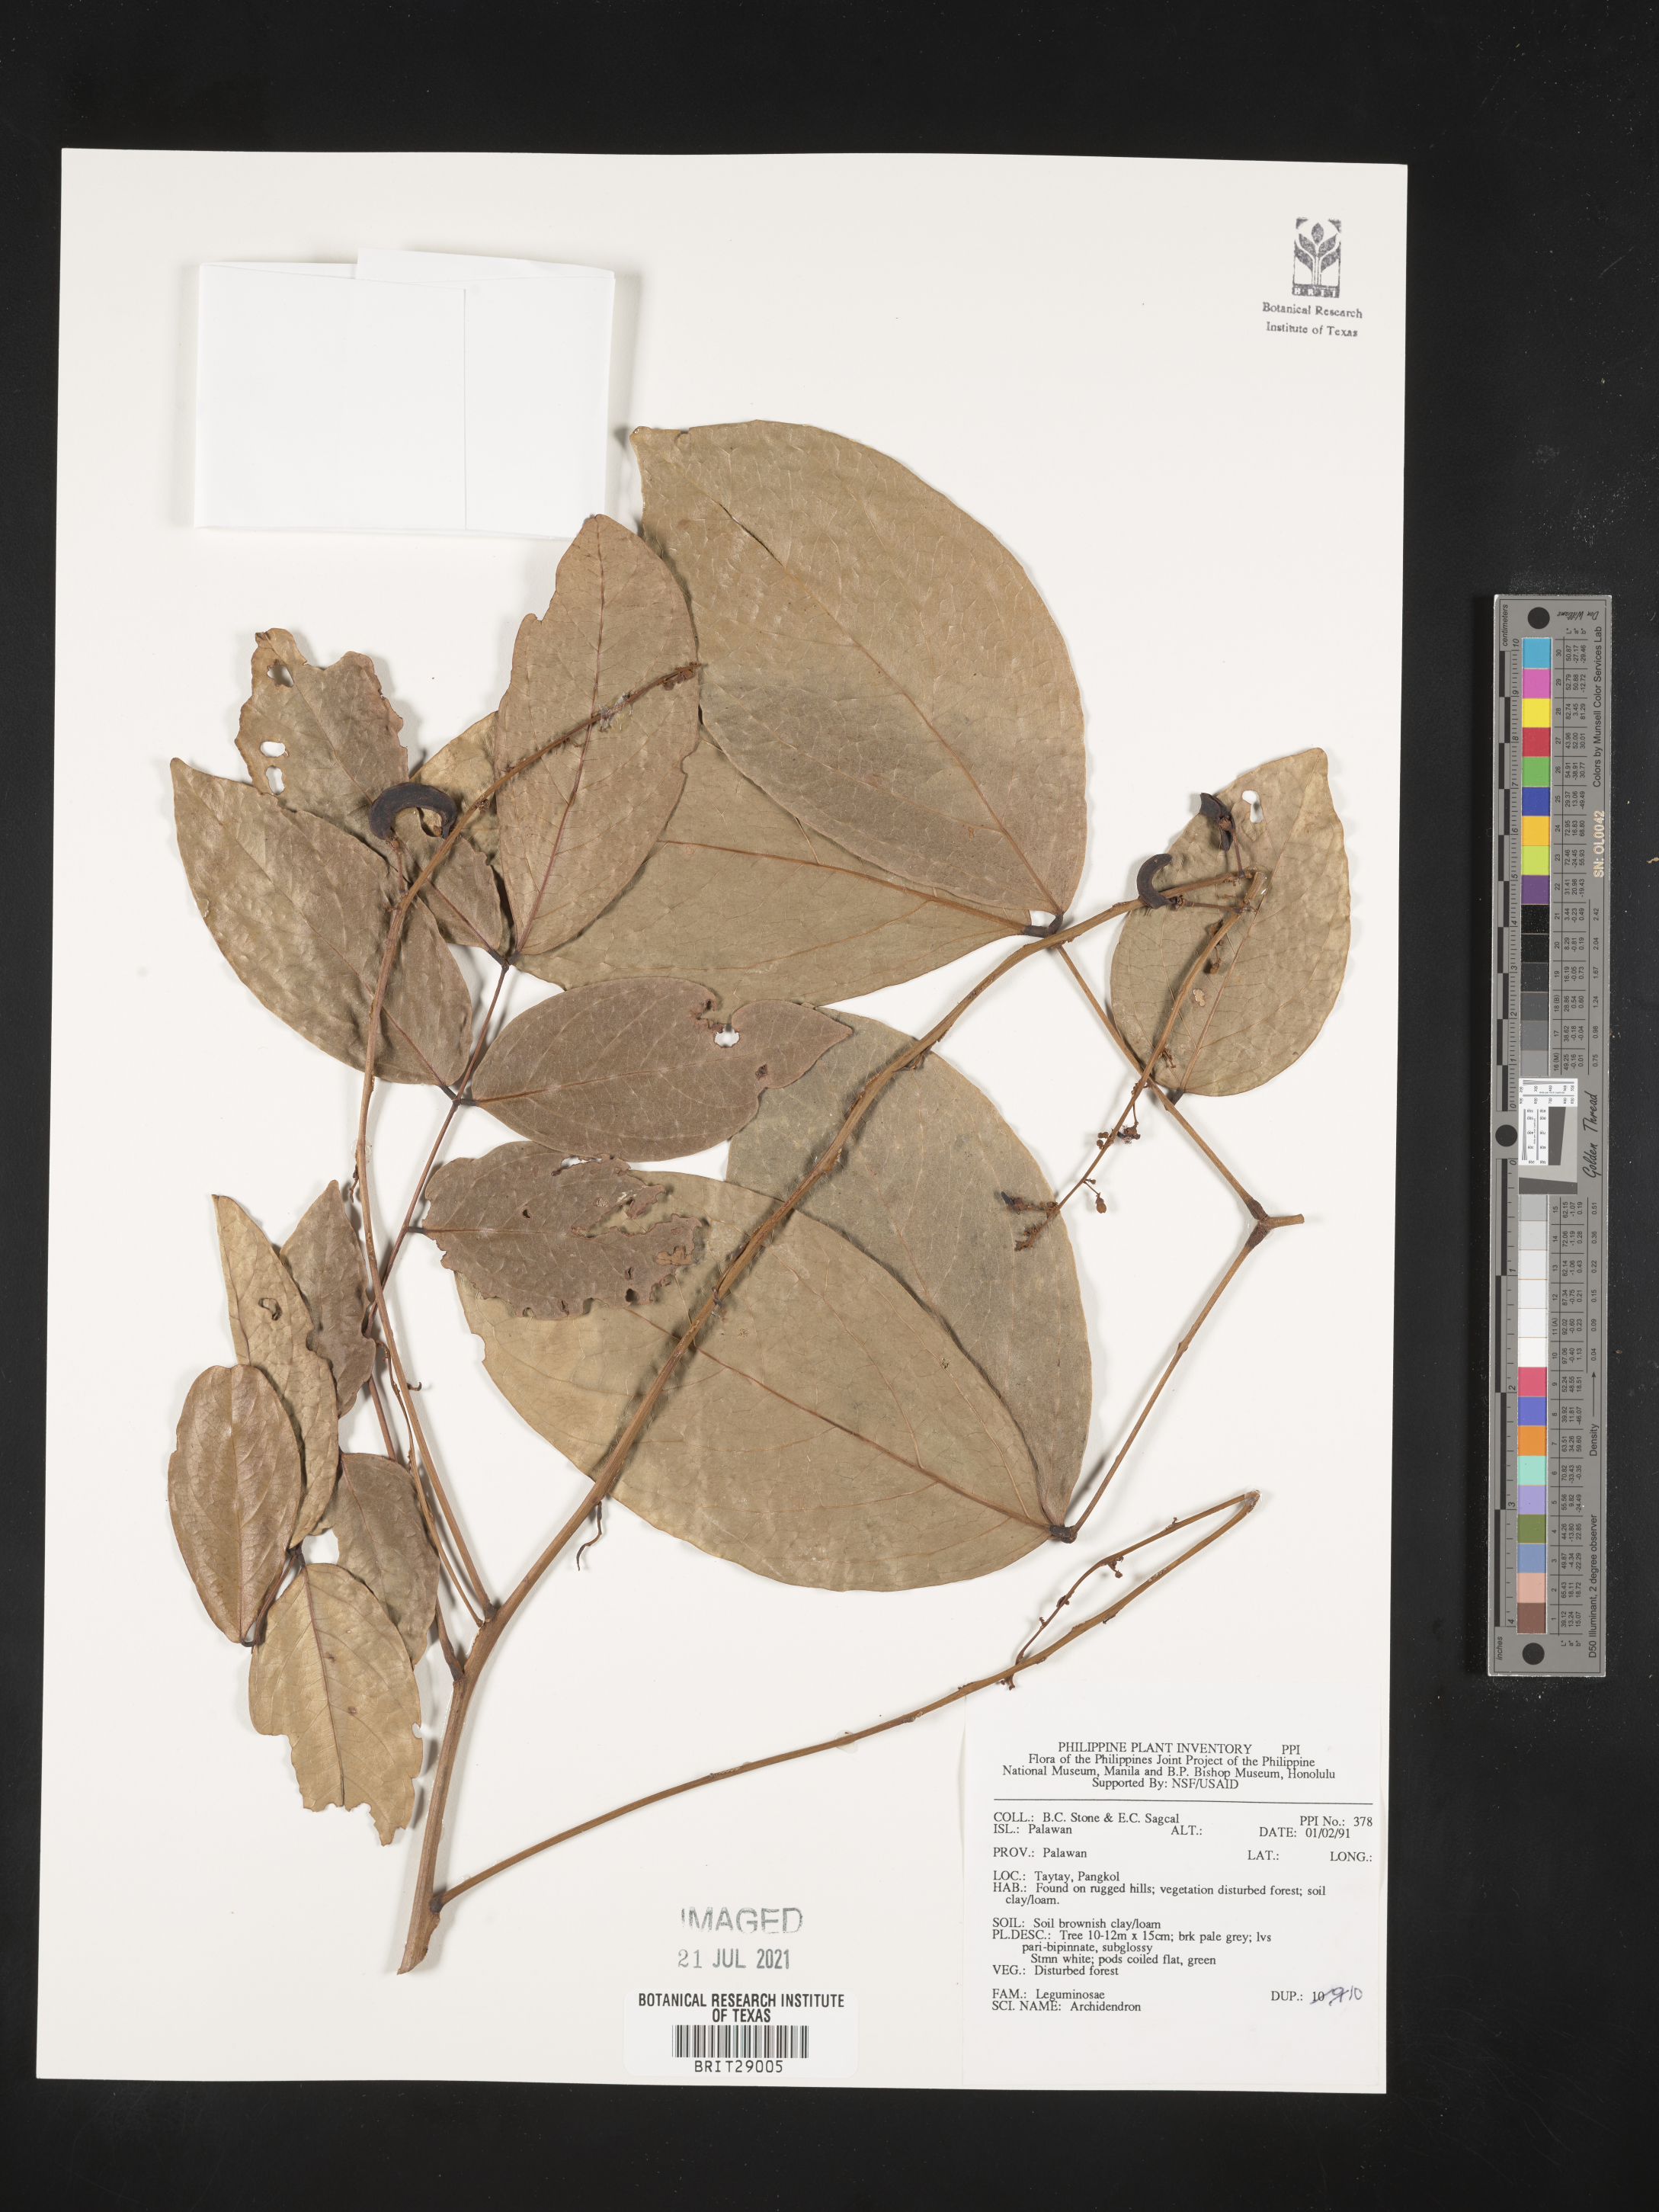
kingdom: Plantae
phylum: Tracheophyta
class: Magnoliopsida
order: Fabales
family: Fabaceae
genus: Archidendron
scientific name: Archidendron
